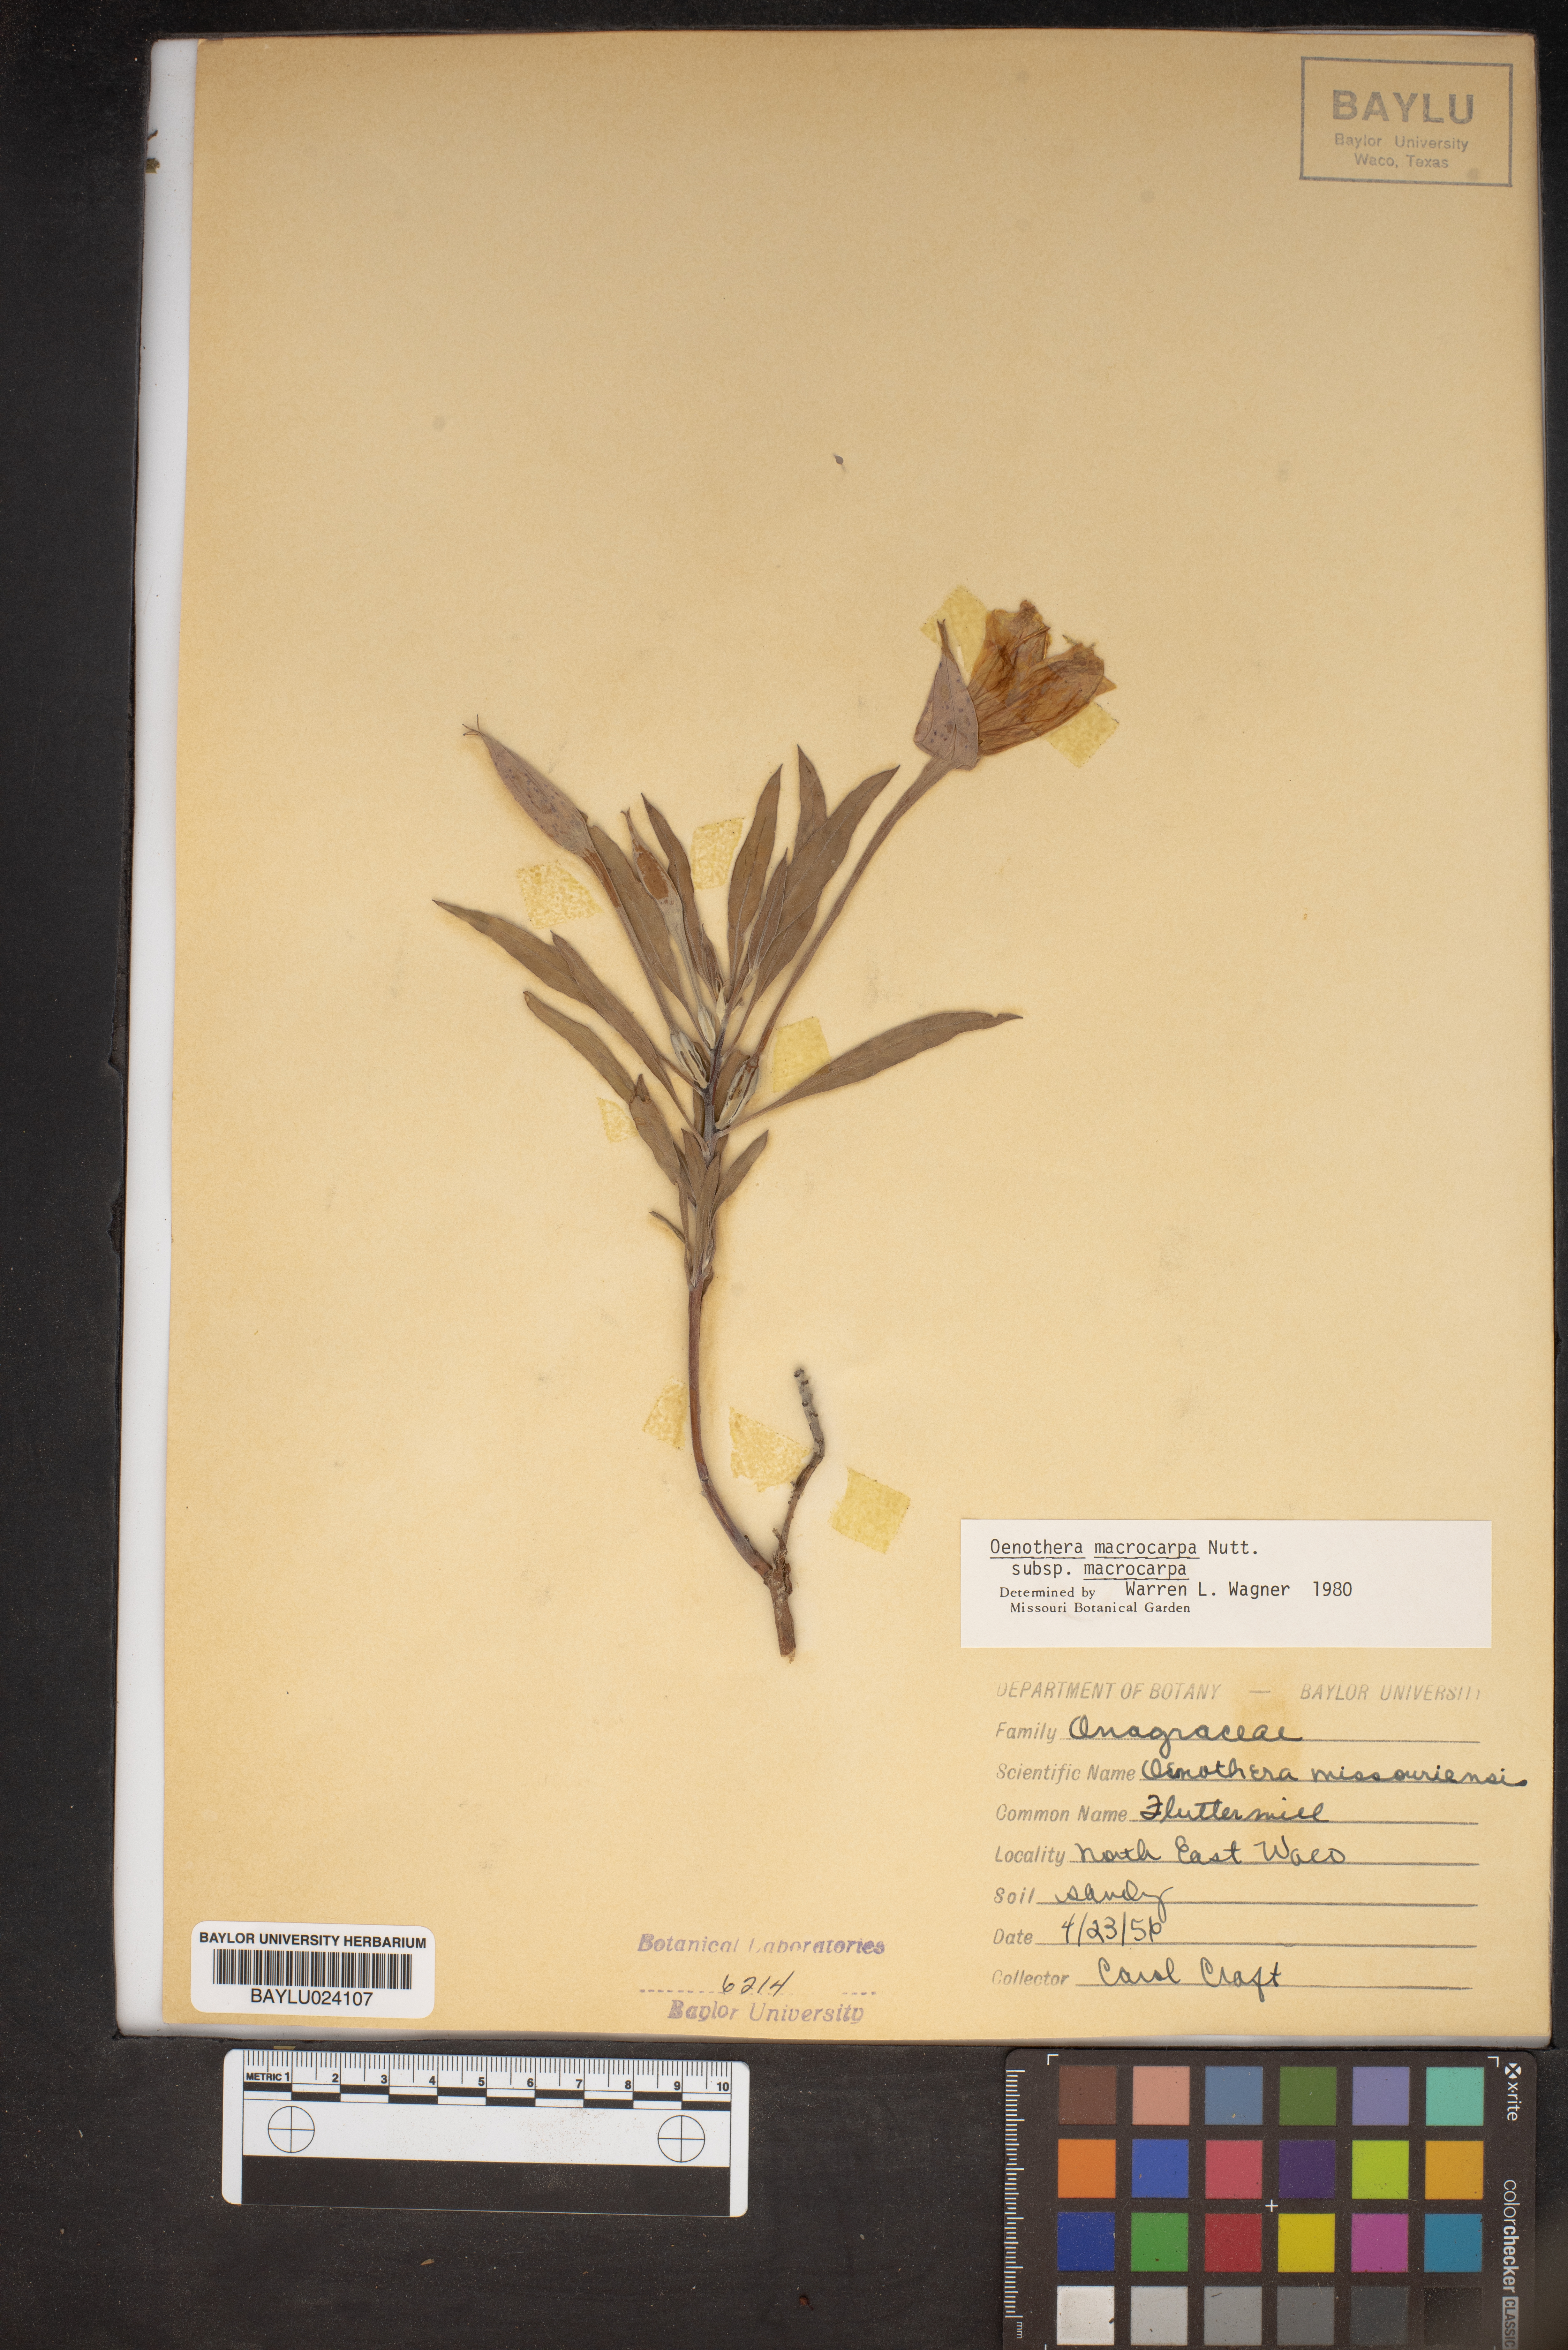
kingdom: Plantae
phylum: Tracheophyta
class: Magnoliopsida
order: Myrtales
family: Onagraceae
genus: Oenothera
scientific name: Oenothera macrocarpa
